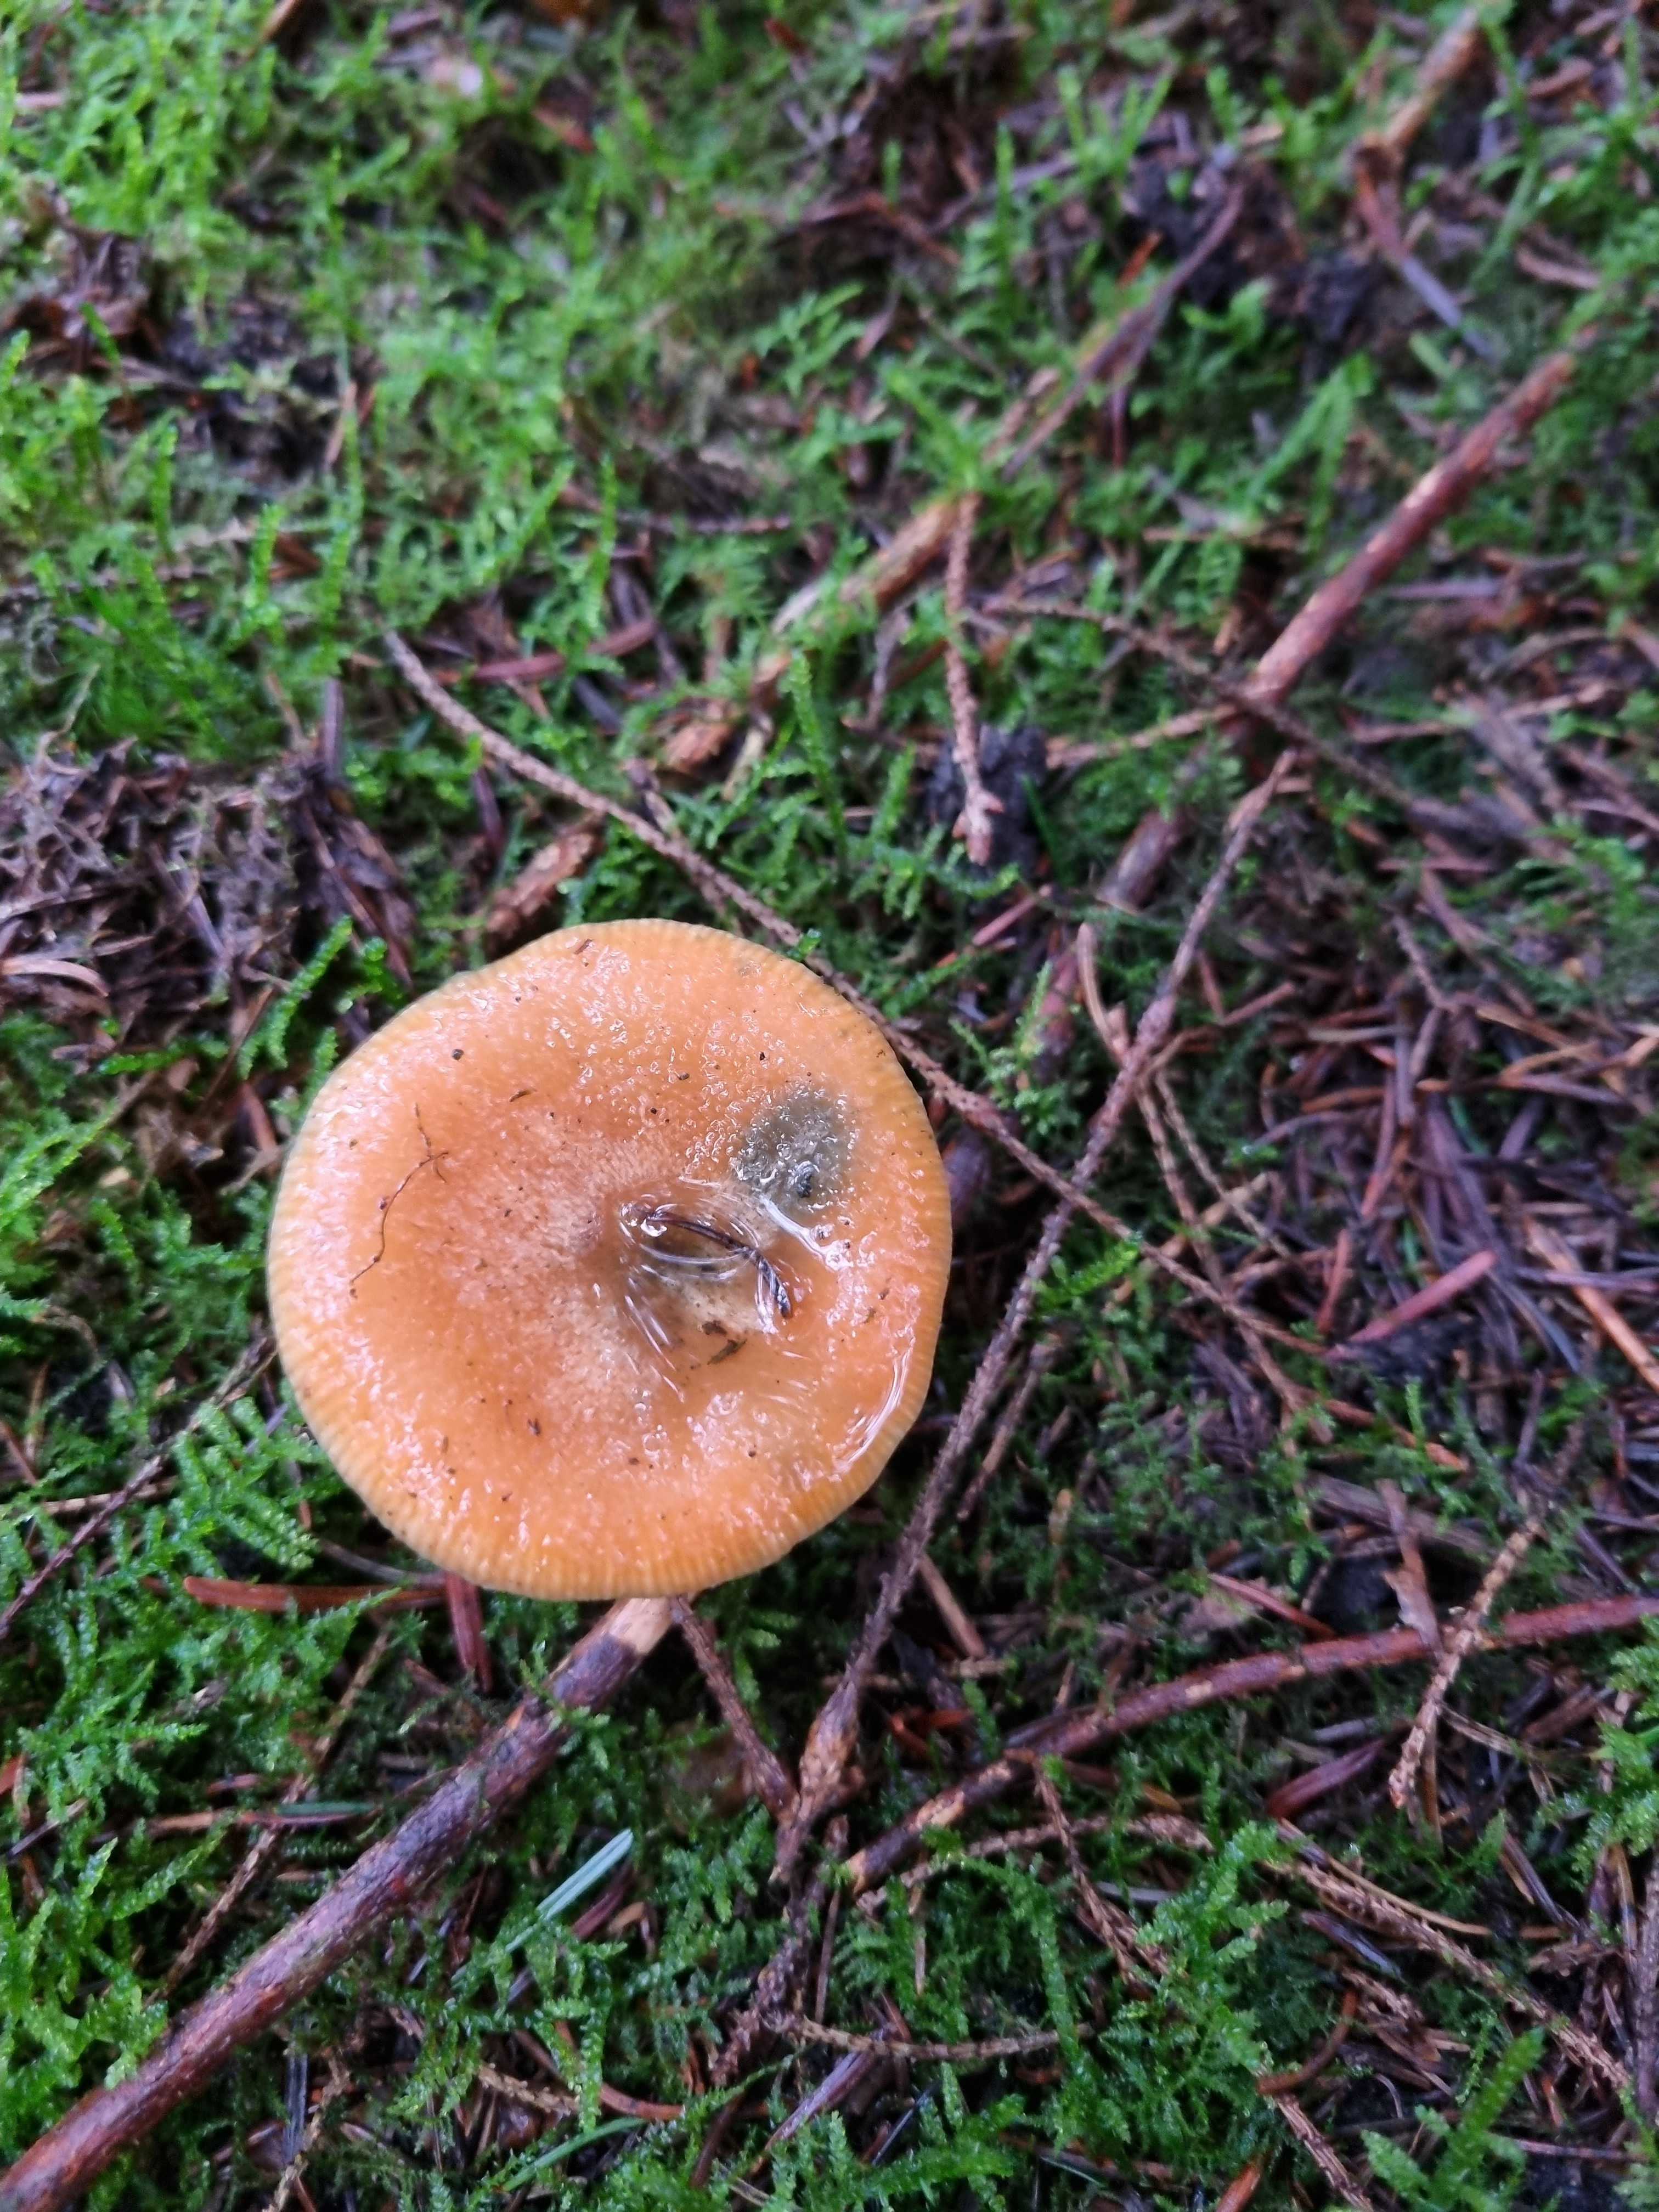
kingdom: Fungi
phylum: Basidiomycota
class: Agaricomycetes
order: Russulales
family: Russulaceae
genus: Lactarius
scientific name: Lactarius deterrimus
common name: gran-mælkehat
